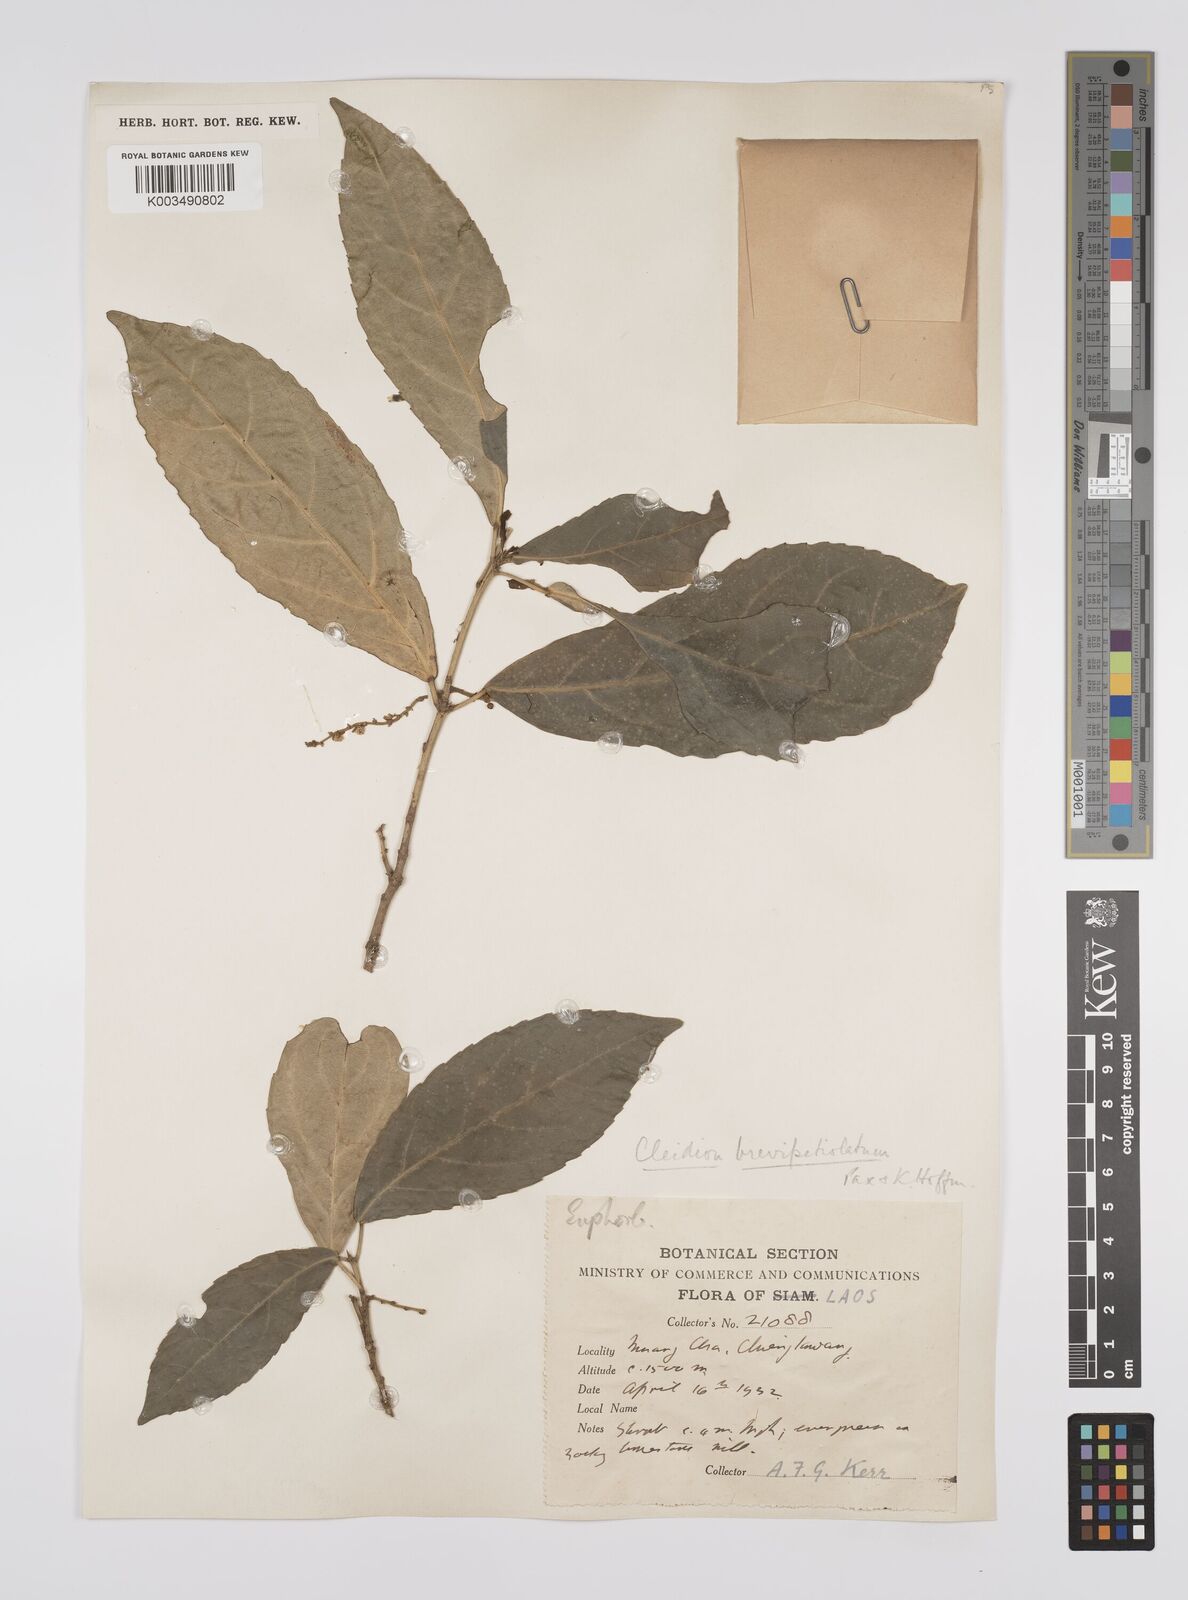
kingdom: Plantae
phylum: Tracheophyta
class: Magnoliopsida
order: Malpighiales
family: Euphorbiaceae
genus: Cleidion
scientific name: Cleidion brevipetiolatum
